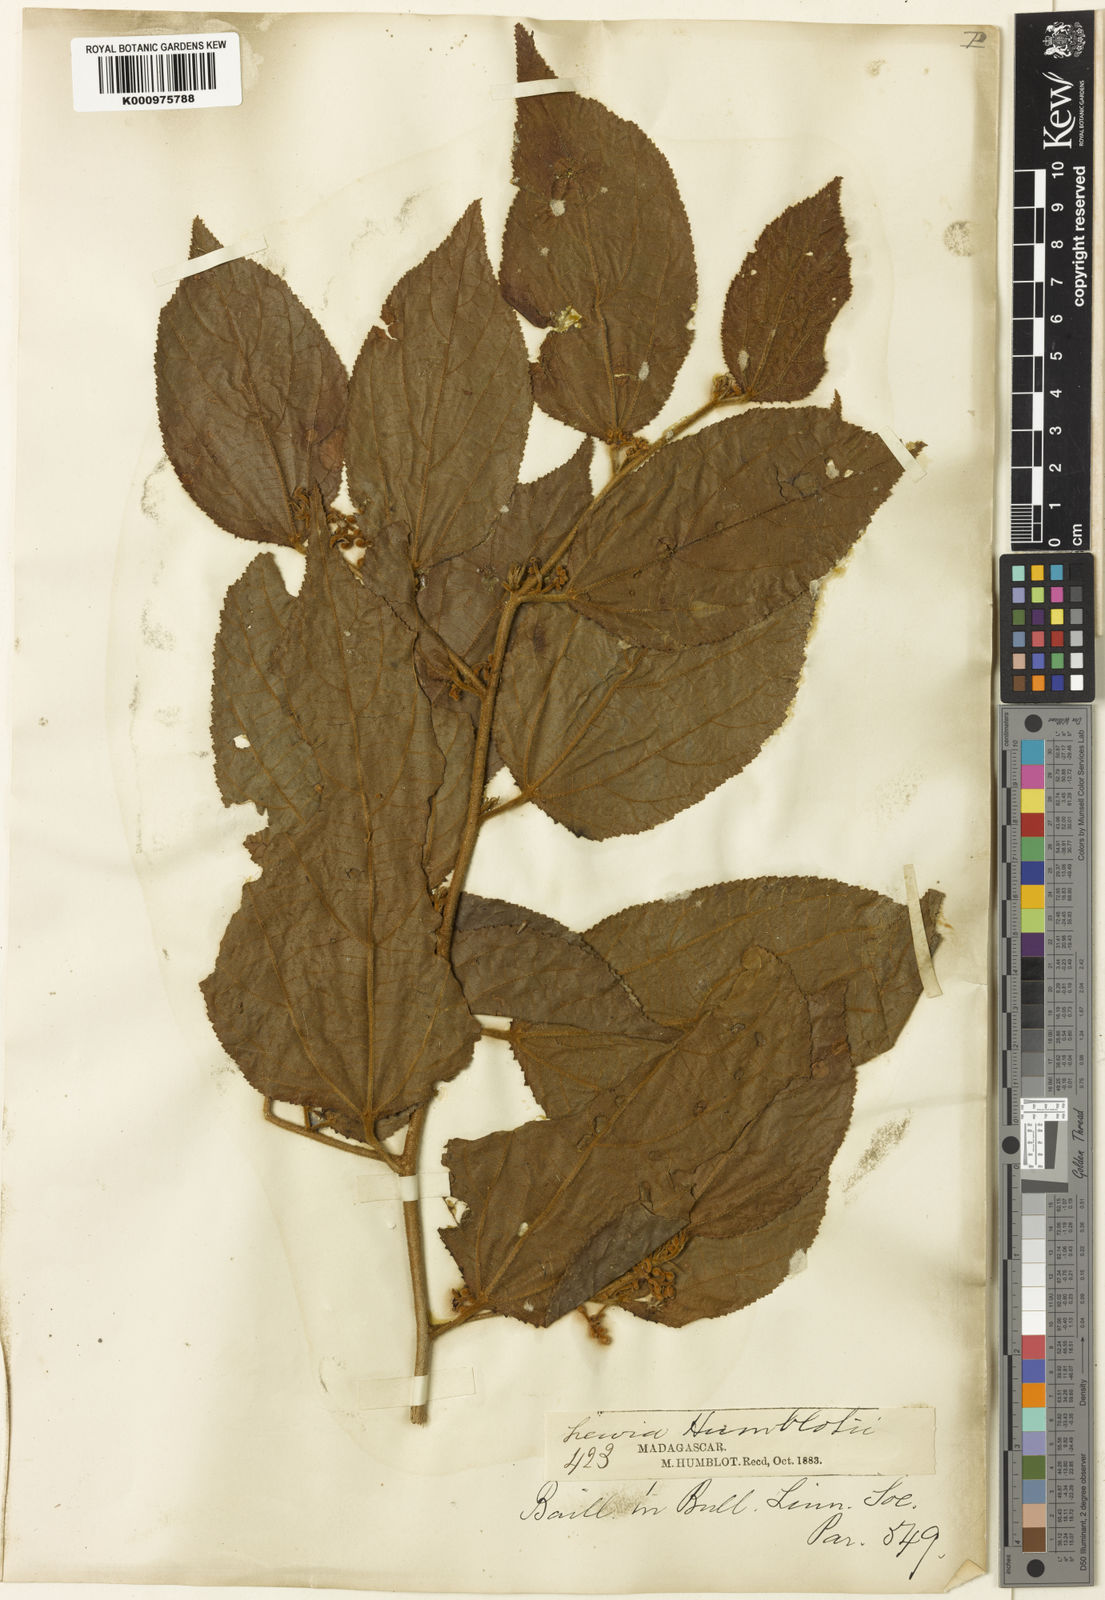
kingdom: Plantae
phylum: Tracheophyta
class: Magnoliopsida
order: Malvales
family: Malvaceae
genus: Grewia
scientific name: Grewia humblotii
